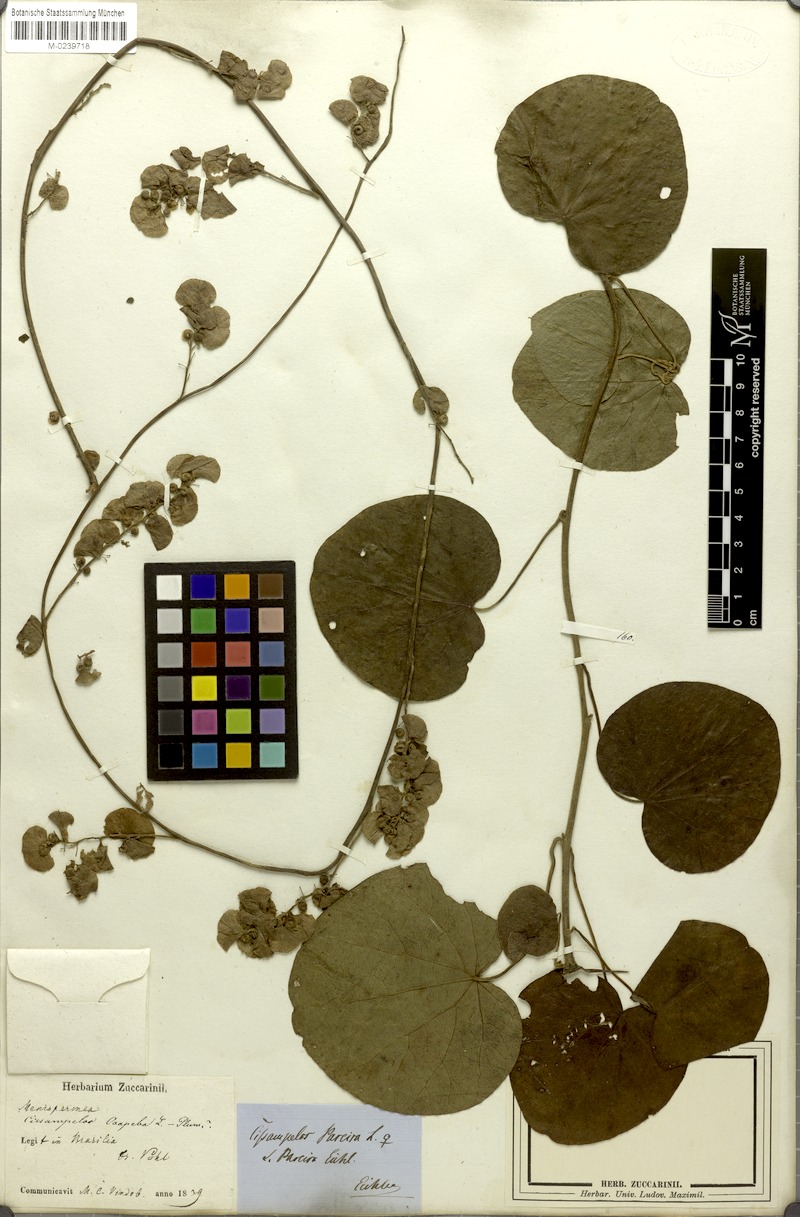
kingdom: Plantae
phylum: Tracheophyta
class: Magnoliopsida
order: Ranunculales
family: Menispermaceae
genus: Cissampelos
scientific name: Cissampelos pareira
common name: Velvetleaf
